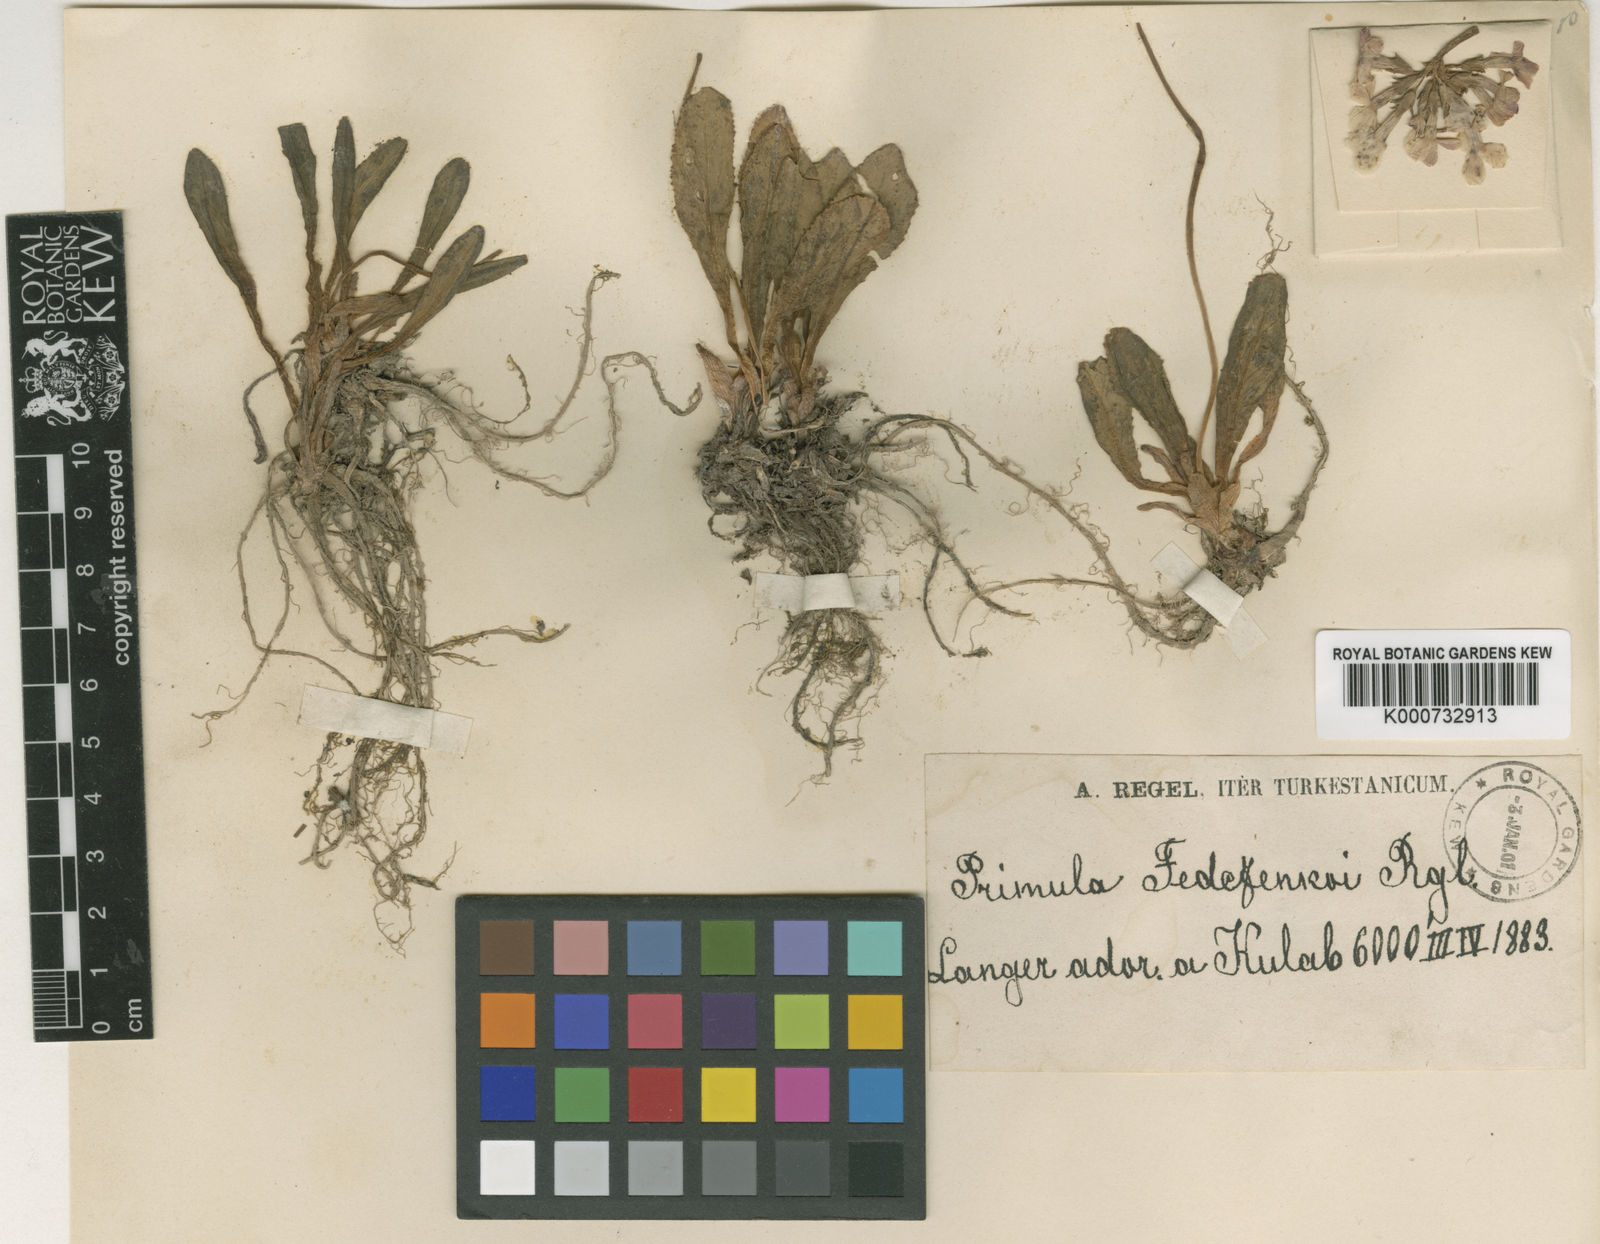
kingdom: Plantae
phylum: Tracheophyta
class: Magnoliopsida
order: Ericales
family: Primulaceae
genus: Primula
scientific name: Primula
